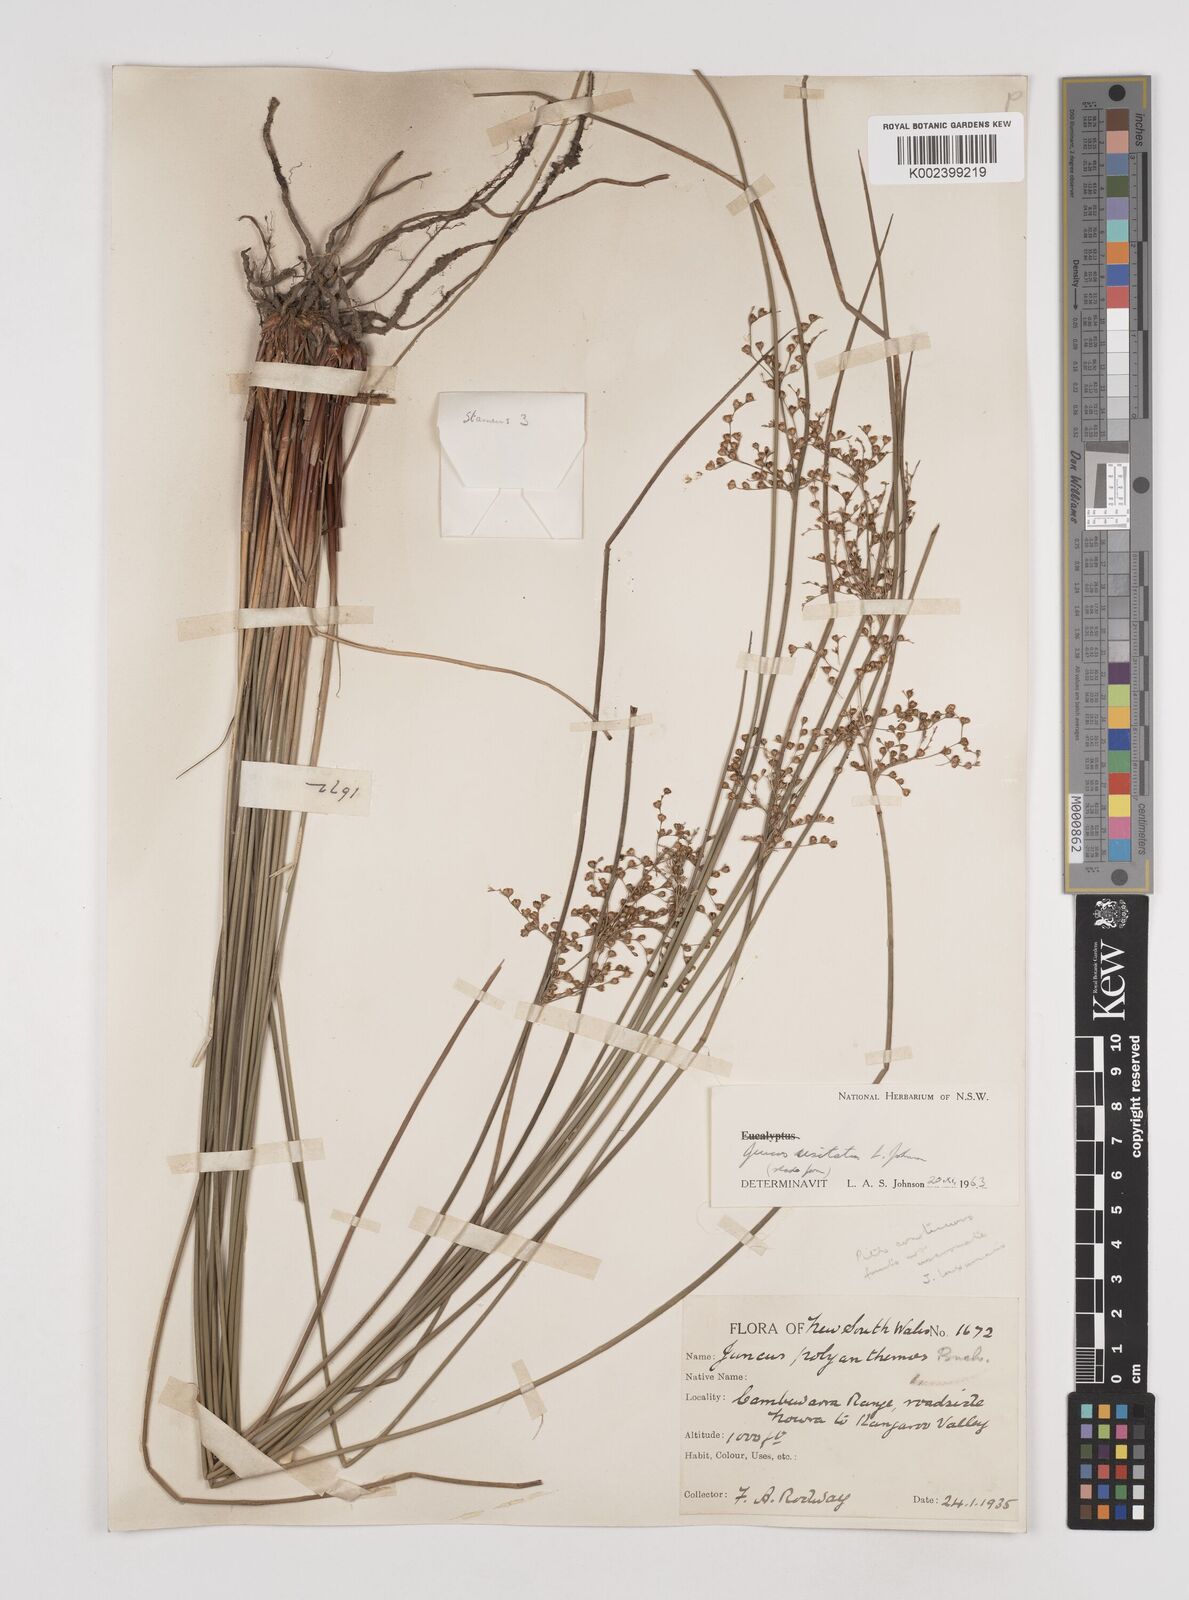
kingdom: Plantae
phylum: Tracheophyta
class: Liliopsida
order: Poales
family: Juncaceae
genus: Juncus
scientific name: Juncus usitatus
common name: Rush
